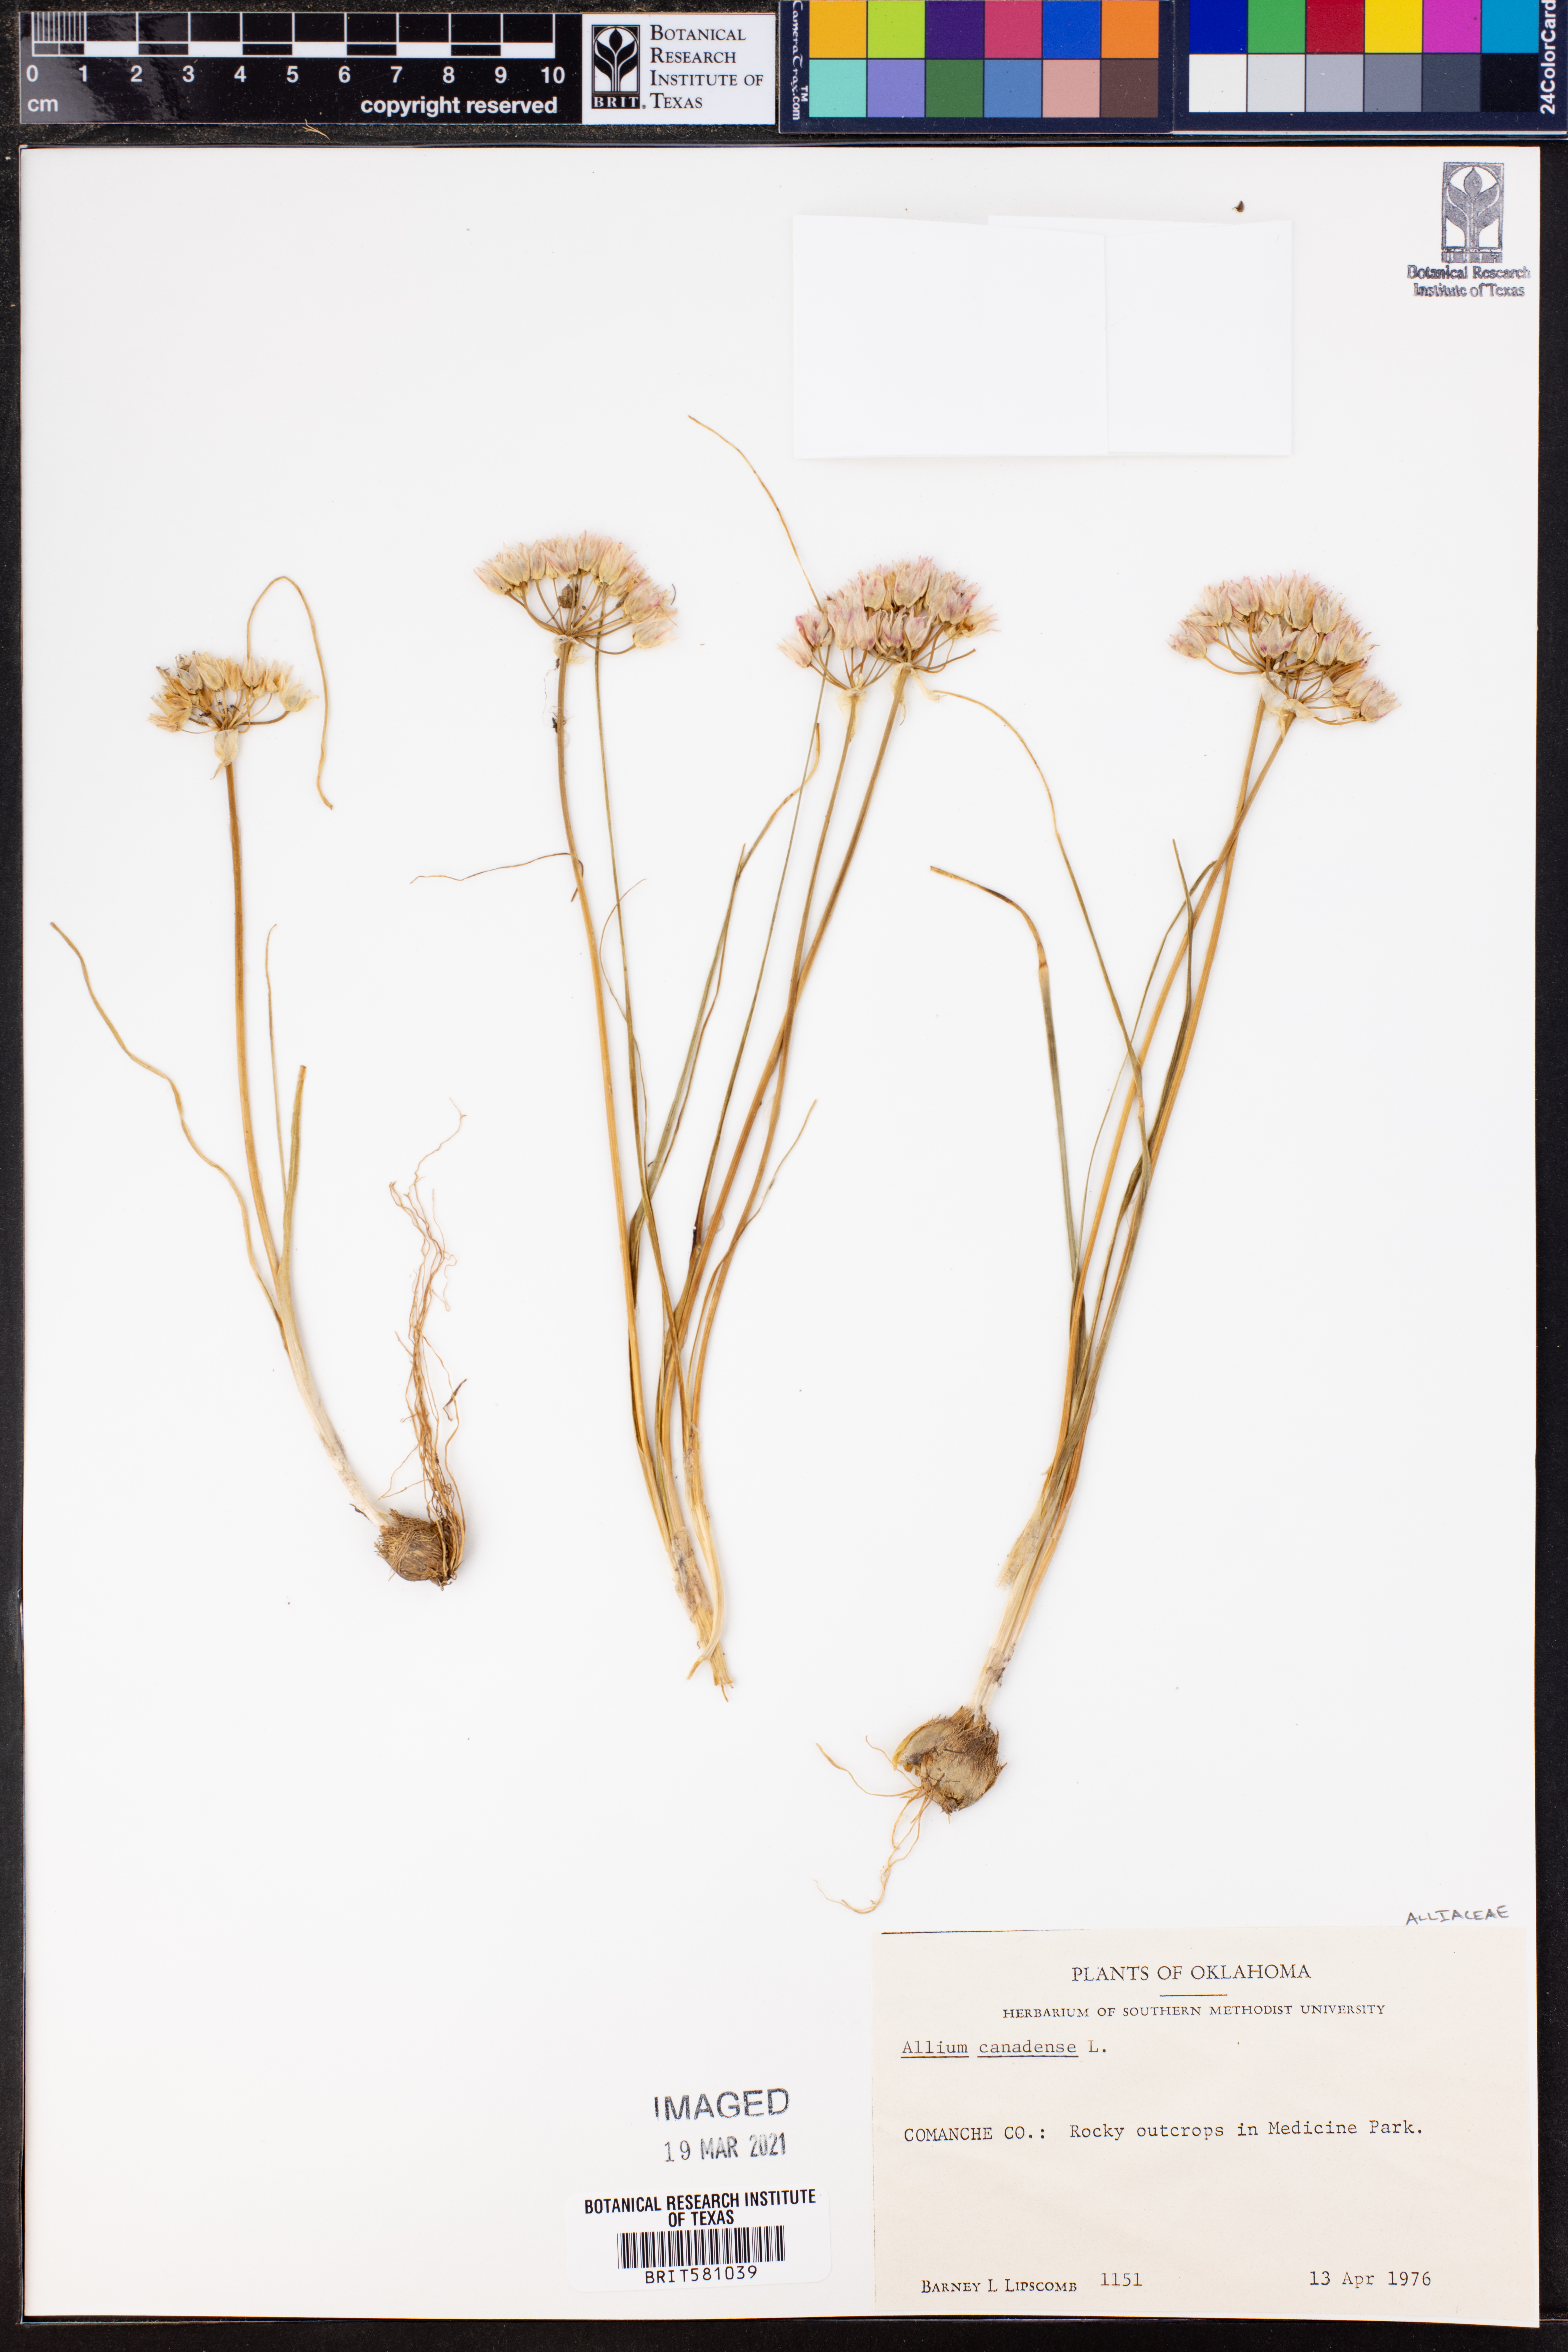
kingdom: Plantae
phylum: Tracheophyta
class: Liliopsida
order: Asparagales
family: Amaryllidaceae
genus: Allium
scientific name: Allium canadense
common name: Meadow garlic
